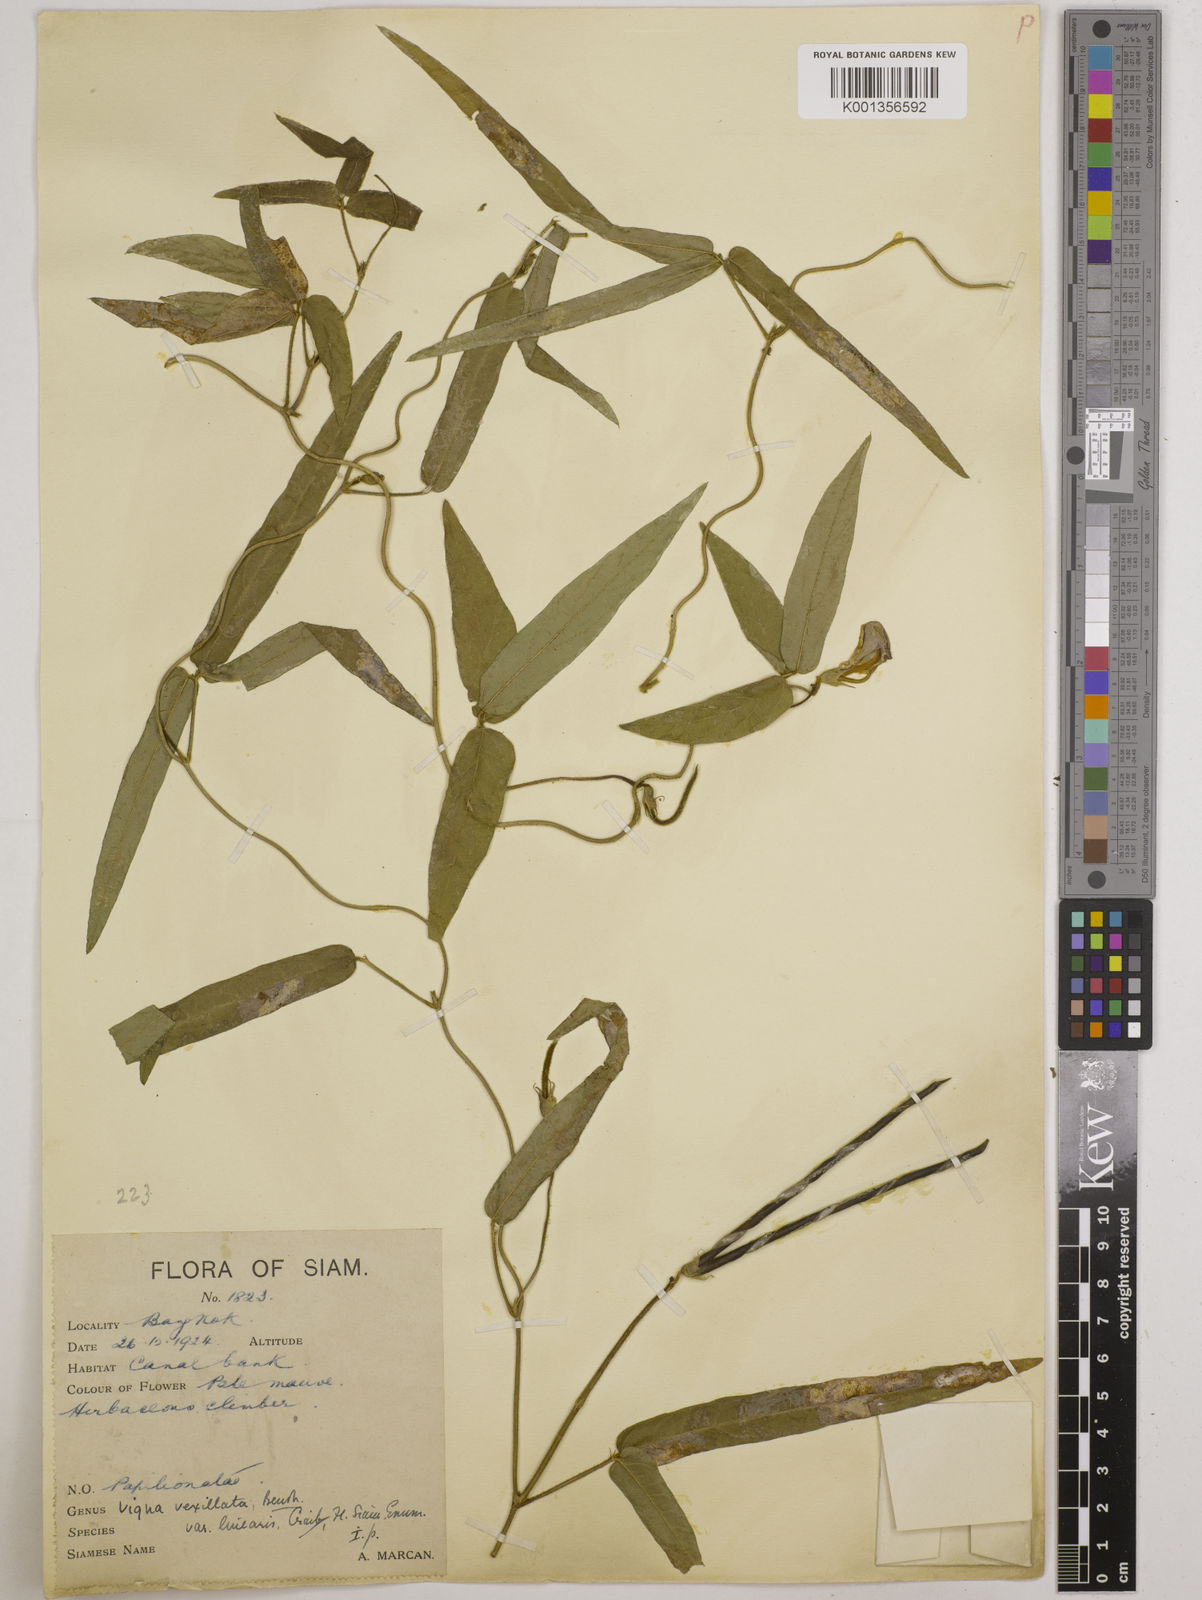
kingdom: Plantae
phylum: Tracheophyta
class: Magnoliopsida
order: Fabales
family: Fabaceae
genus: Vigna
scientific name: Vigna vexillata
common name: Zombi pea
